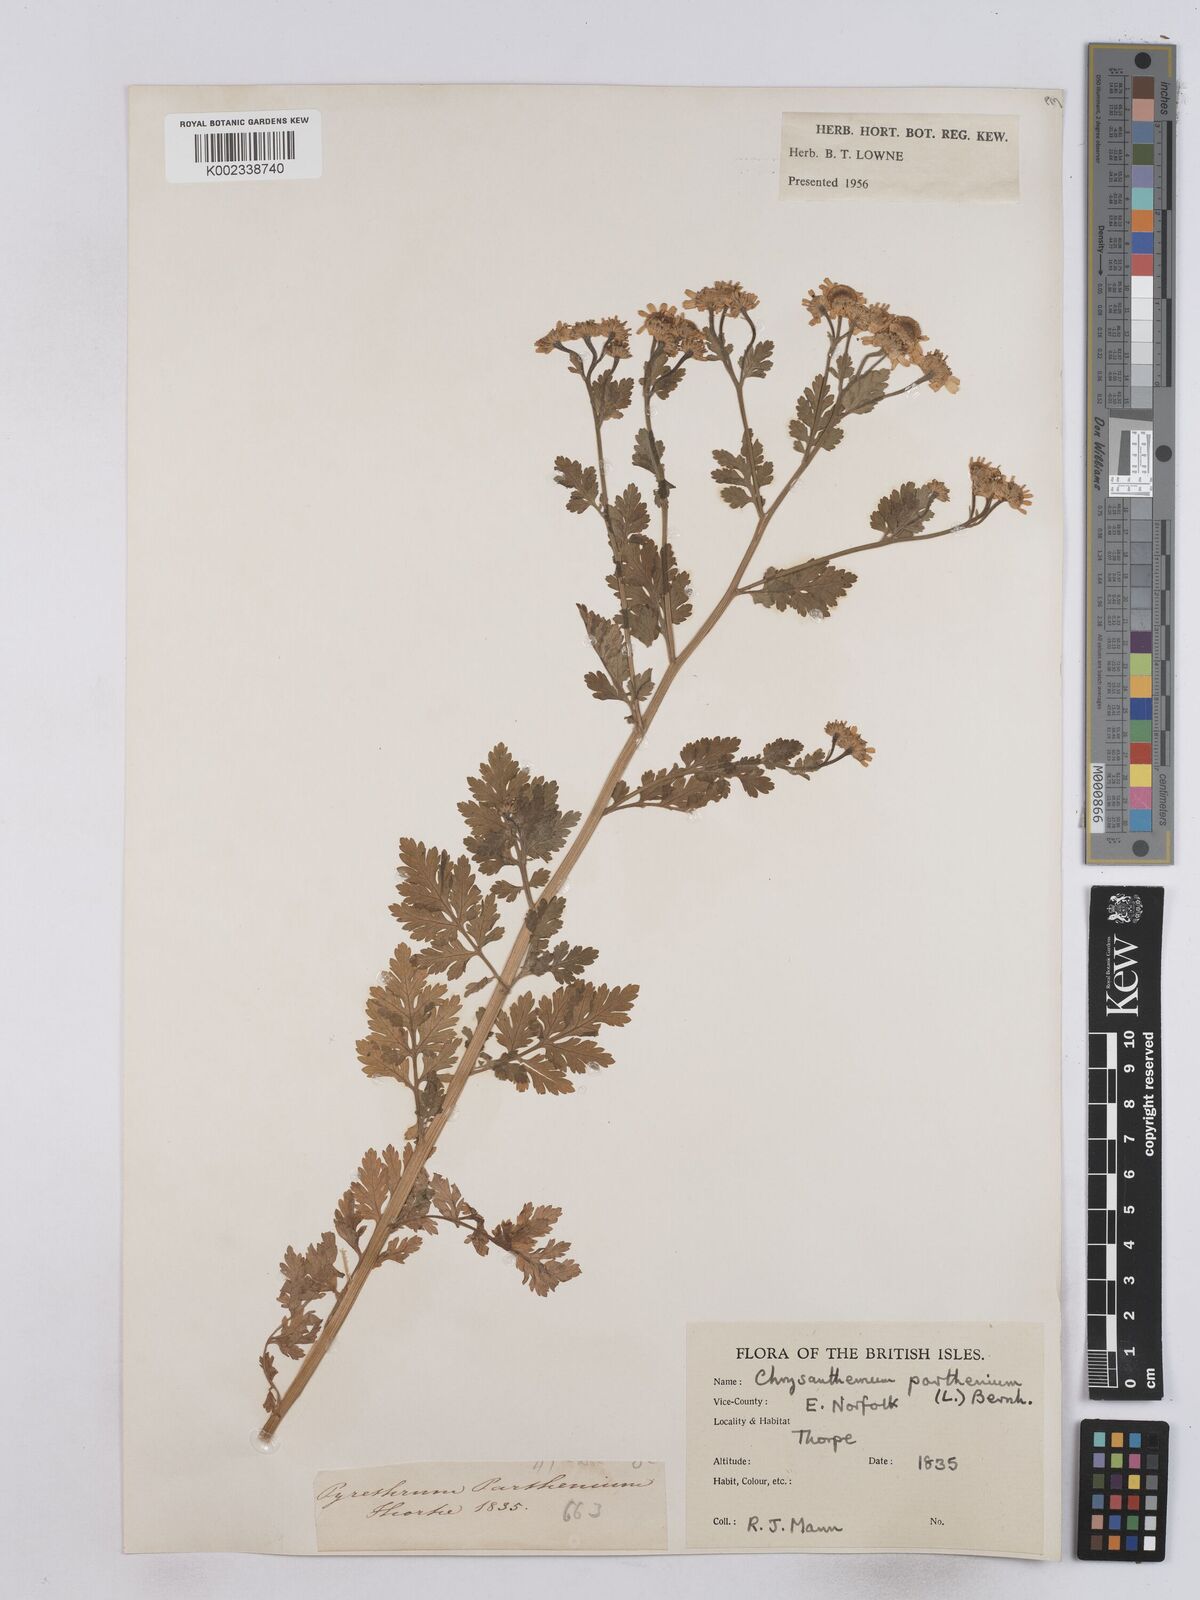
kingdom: Plantae
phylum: Tracheophyta
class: Magnoliopsida
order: Asterales
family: Asteraceae
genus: Tanacetum
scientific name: Tanacetum parthenium
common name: Feverfew
